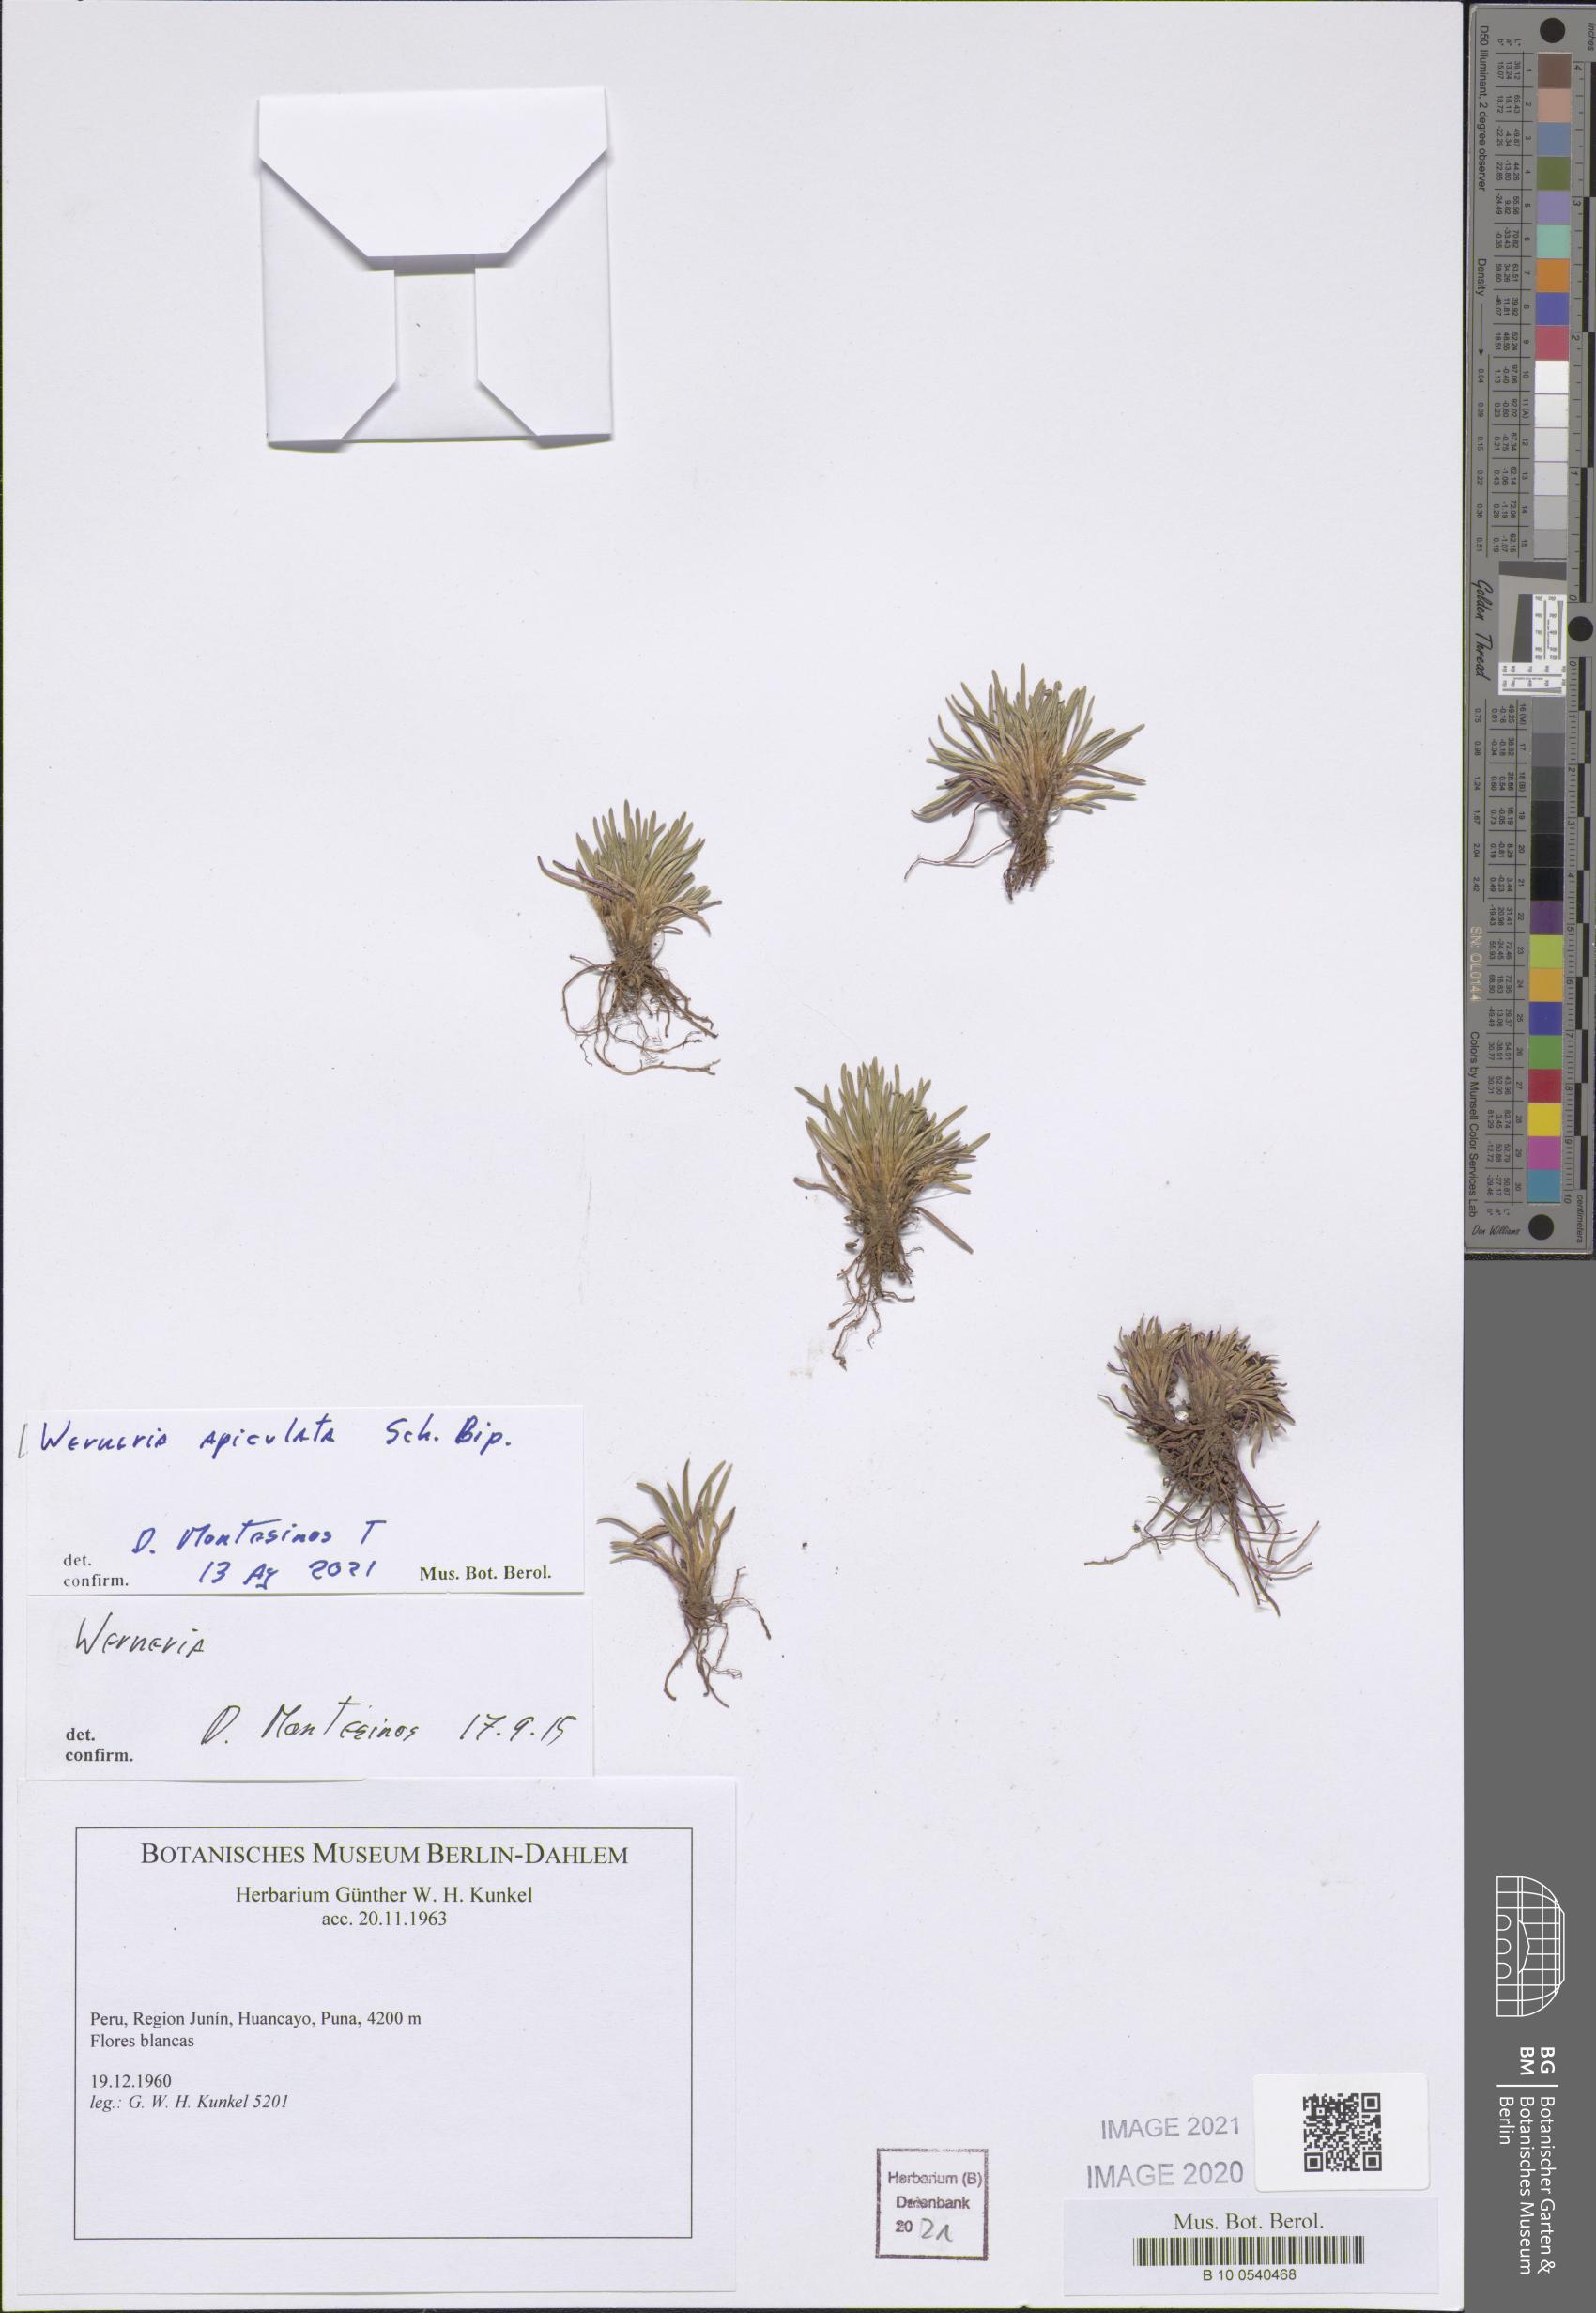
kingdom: Plantae
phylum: Tracheophyta
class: Magnoliopsida
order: Asterales
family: Asteraceae
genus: Rockhausenia
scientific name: Rockhausenia apiculata
